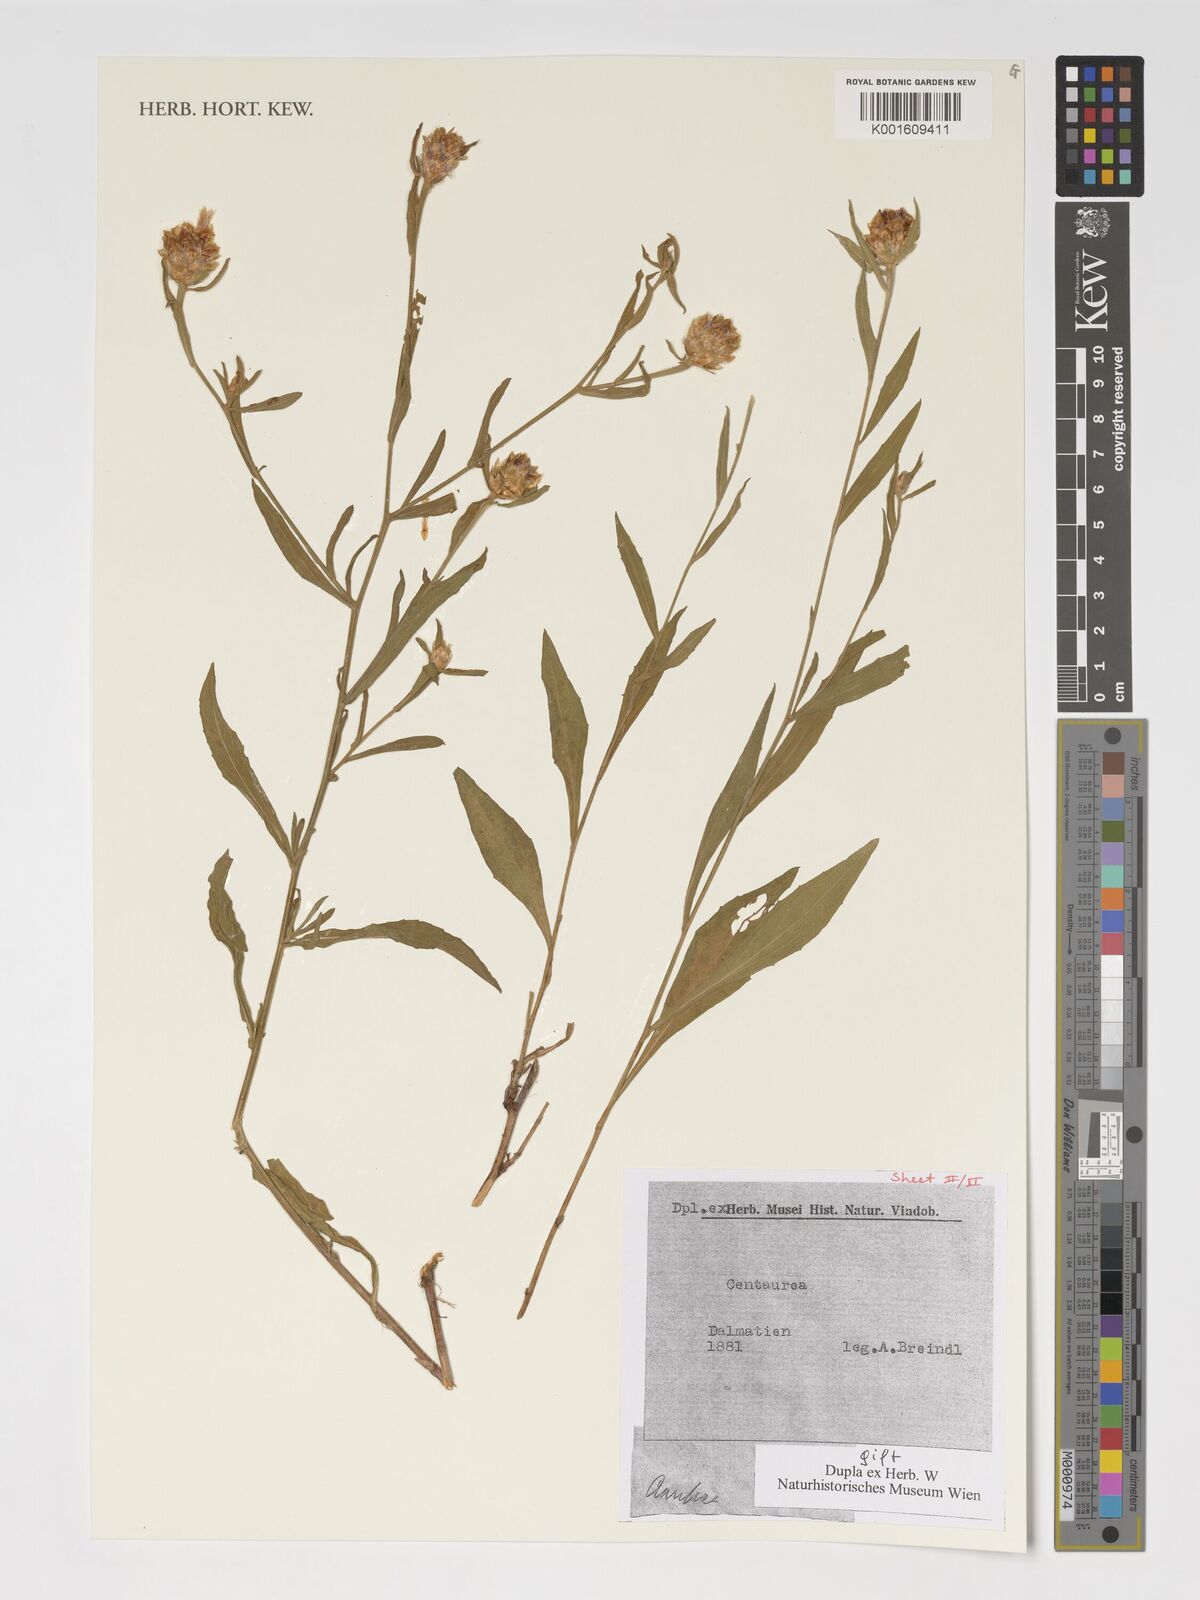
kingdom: Plantae
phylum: Tracheophyta
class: Magnoliopsida
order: Asterales
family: Asteraceae
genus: Centaurea
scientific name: Centaurea
